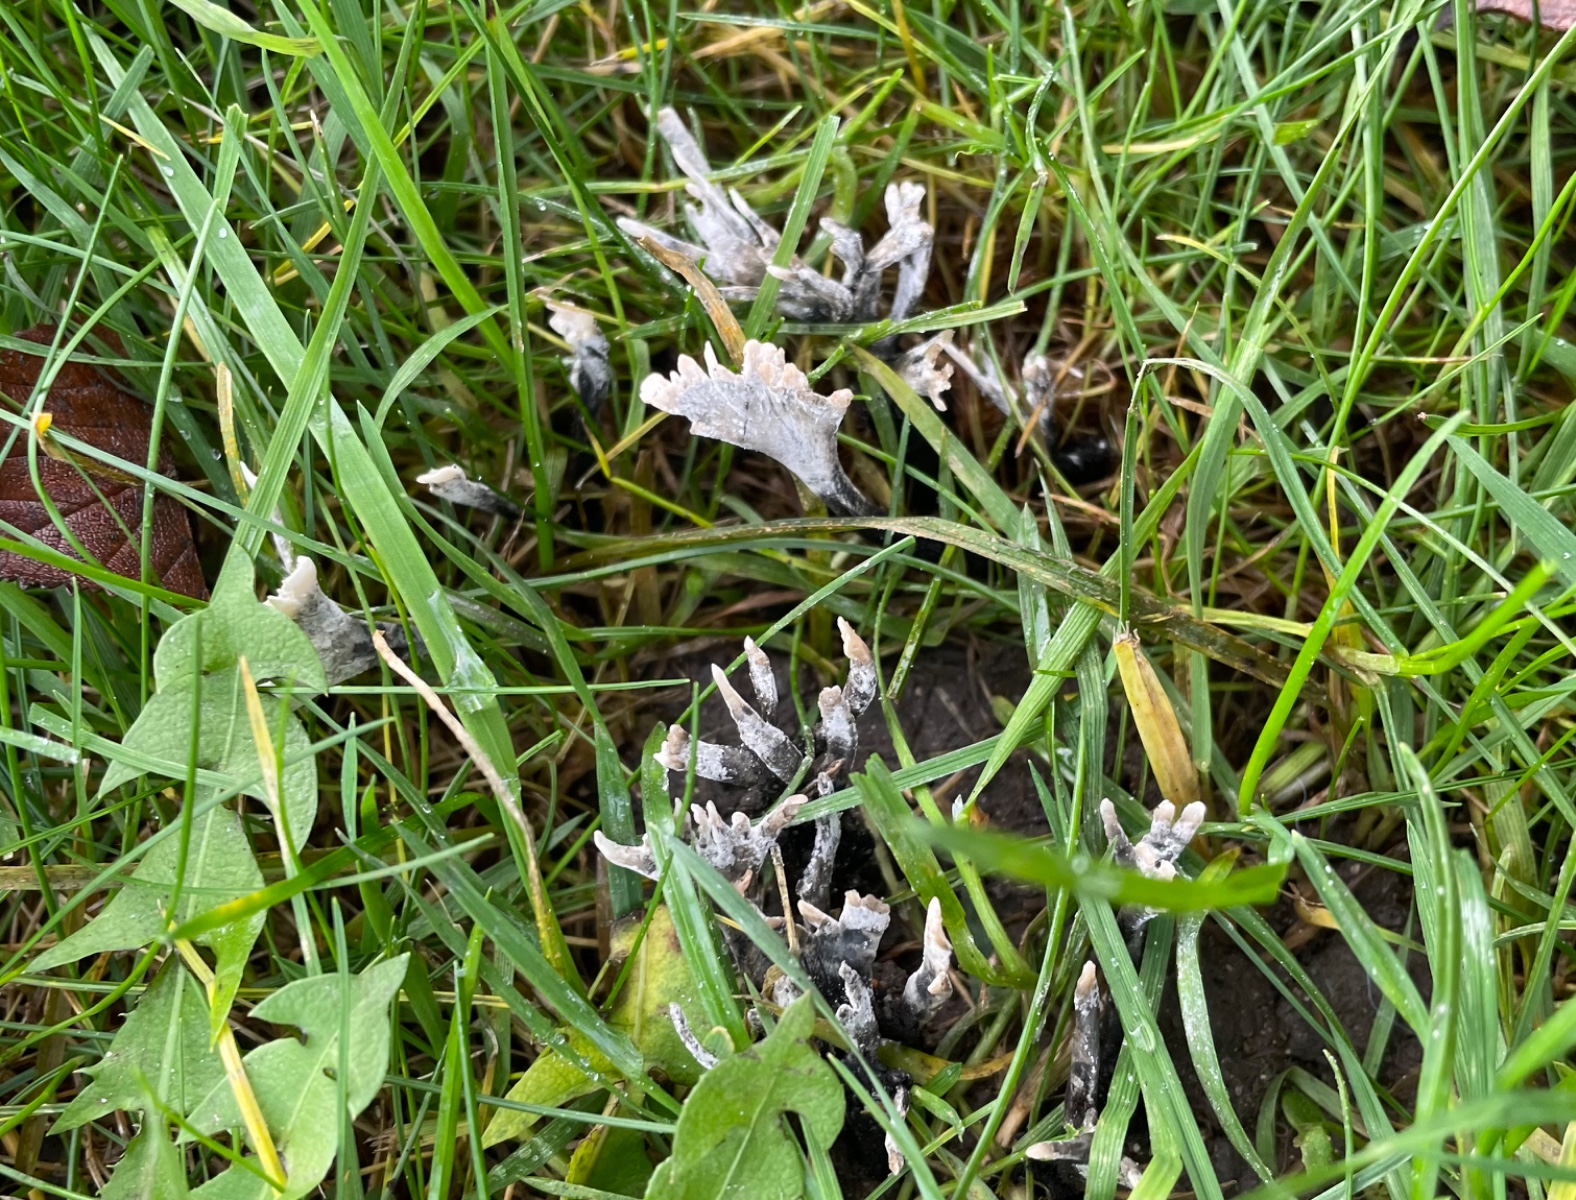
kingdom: Fungi
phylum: Ascomycota
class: Sordariomycetes
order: Xylariales
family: Xylariaceae
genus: Xylaria
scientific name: Xylaria hypoxylon
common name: grenet stødsvamp
